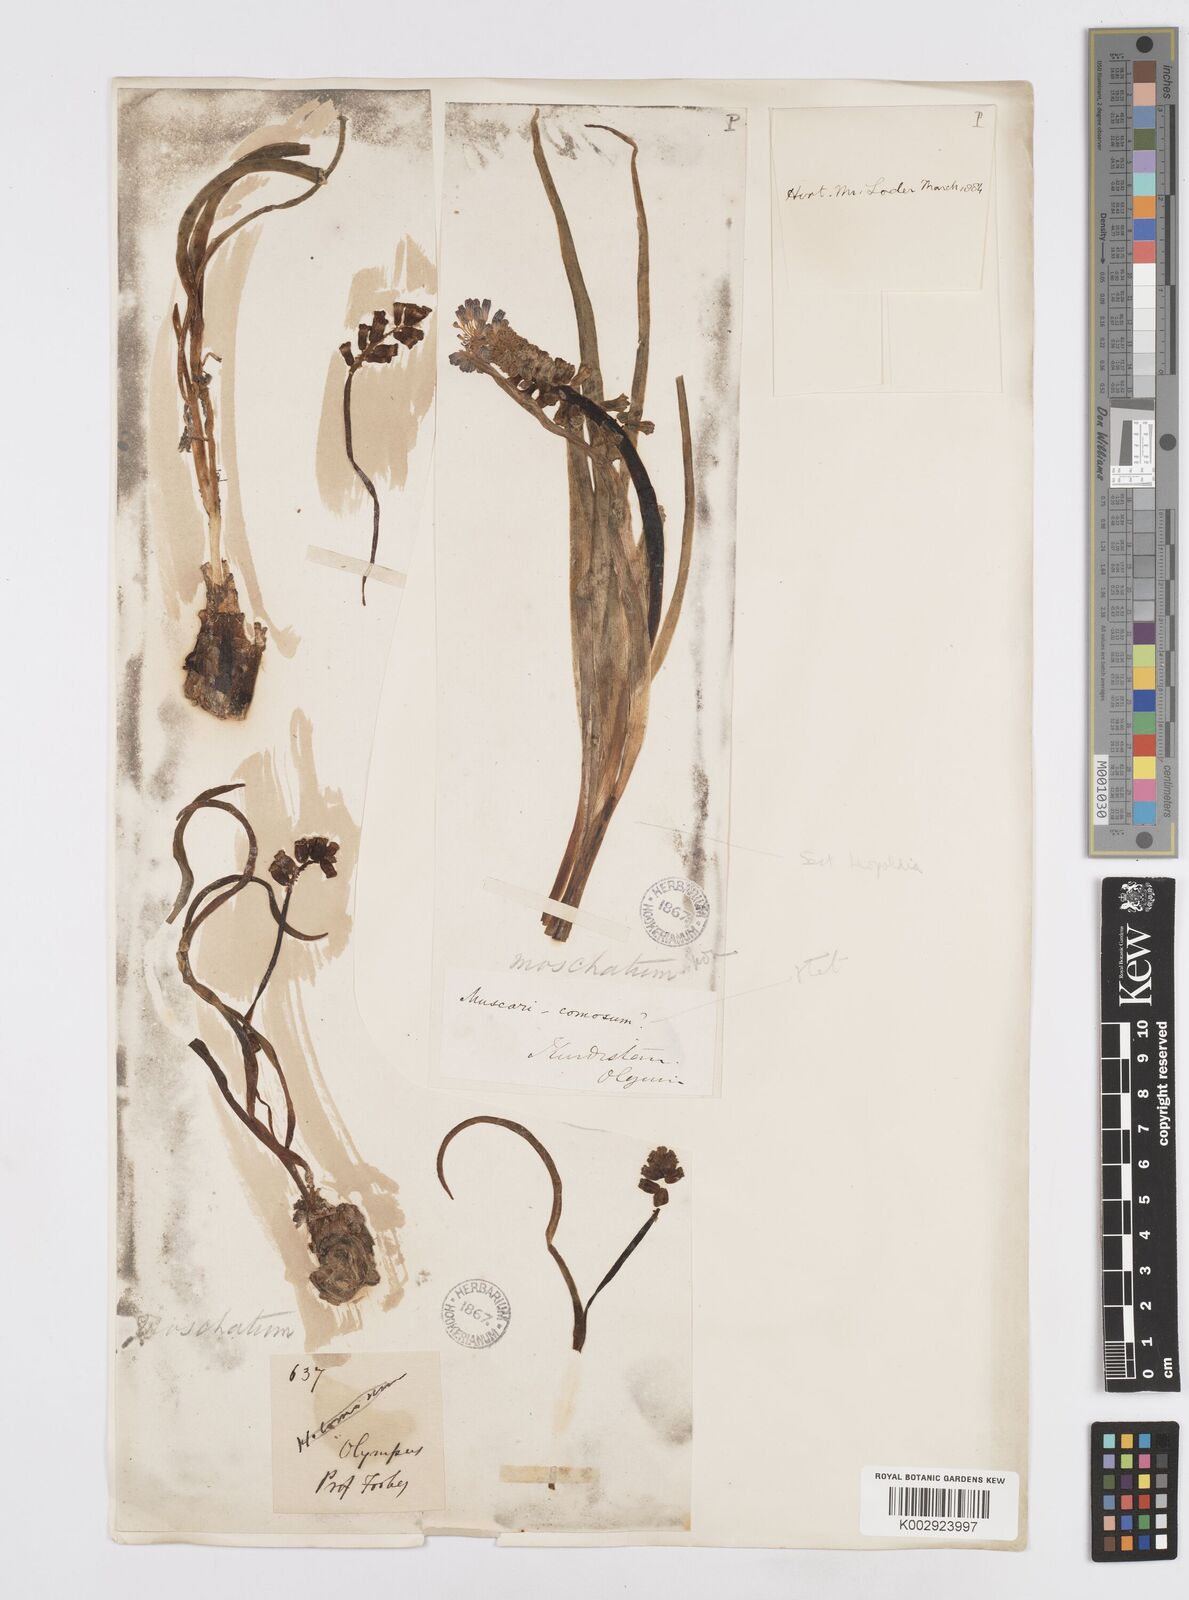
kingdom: Plantae
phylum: Tracheophyta
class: Liliopsida
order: Asparagales
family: Asparagaceae
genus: Muscari
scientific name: Muscari
